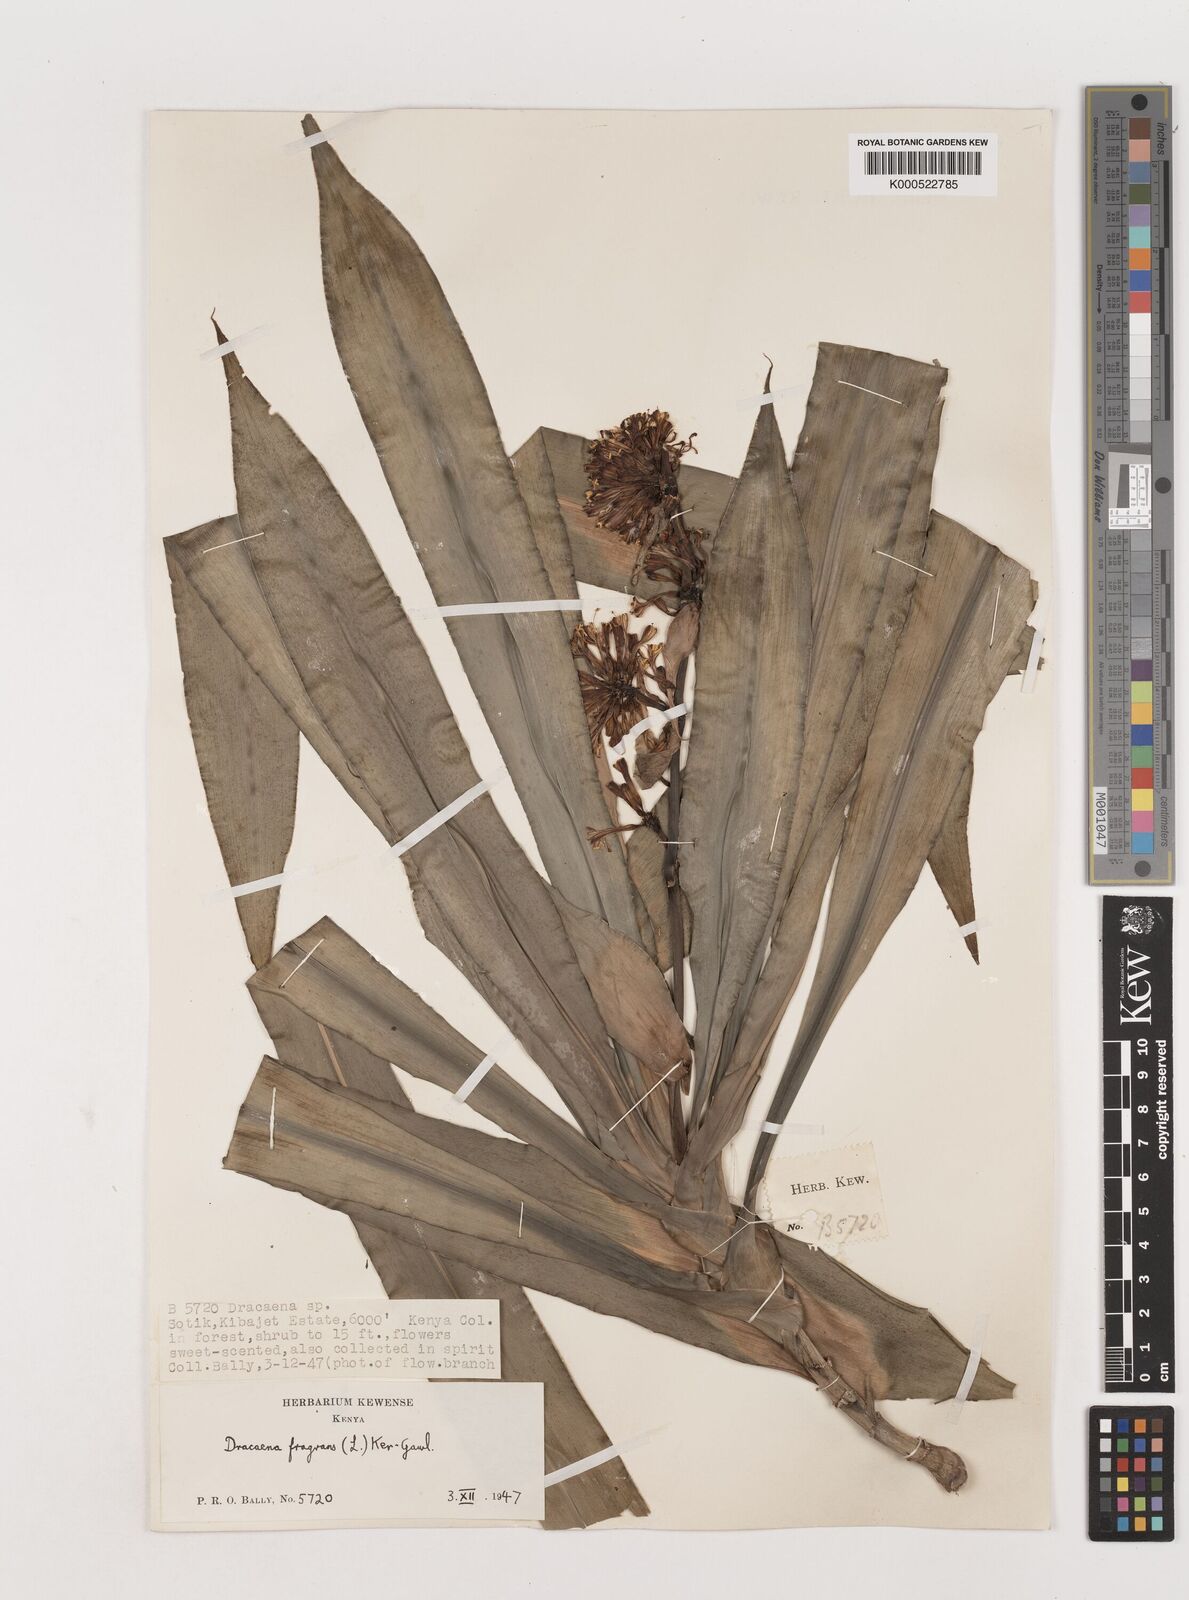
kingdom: Plantae
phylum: Tracheophyta
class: Liliopsida
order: Asparagales
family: Asparagaceae
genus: Dracaena
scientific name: Dracaena fragrans
